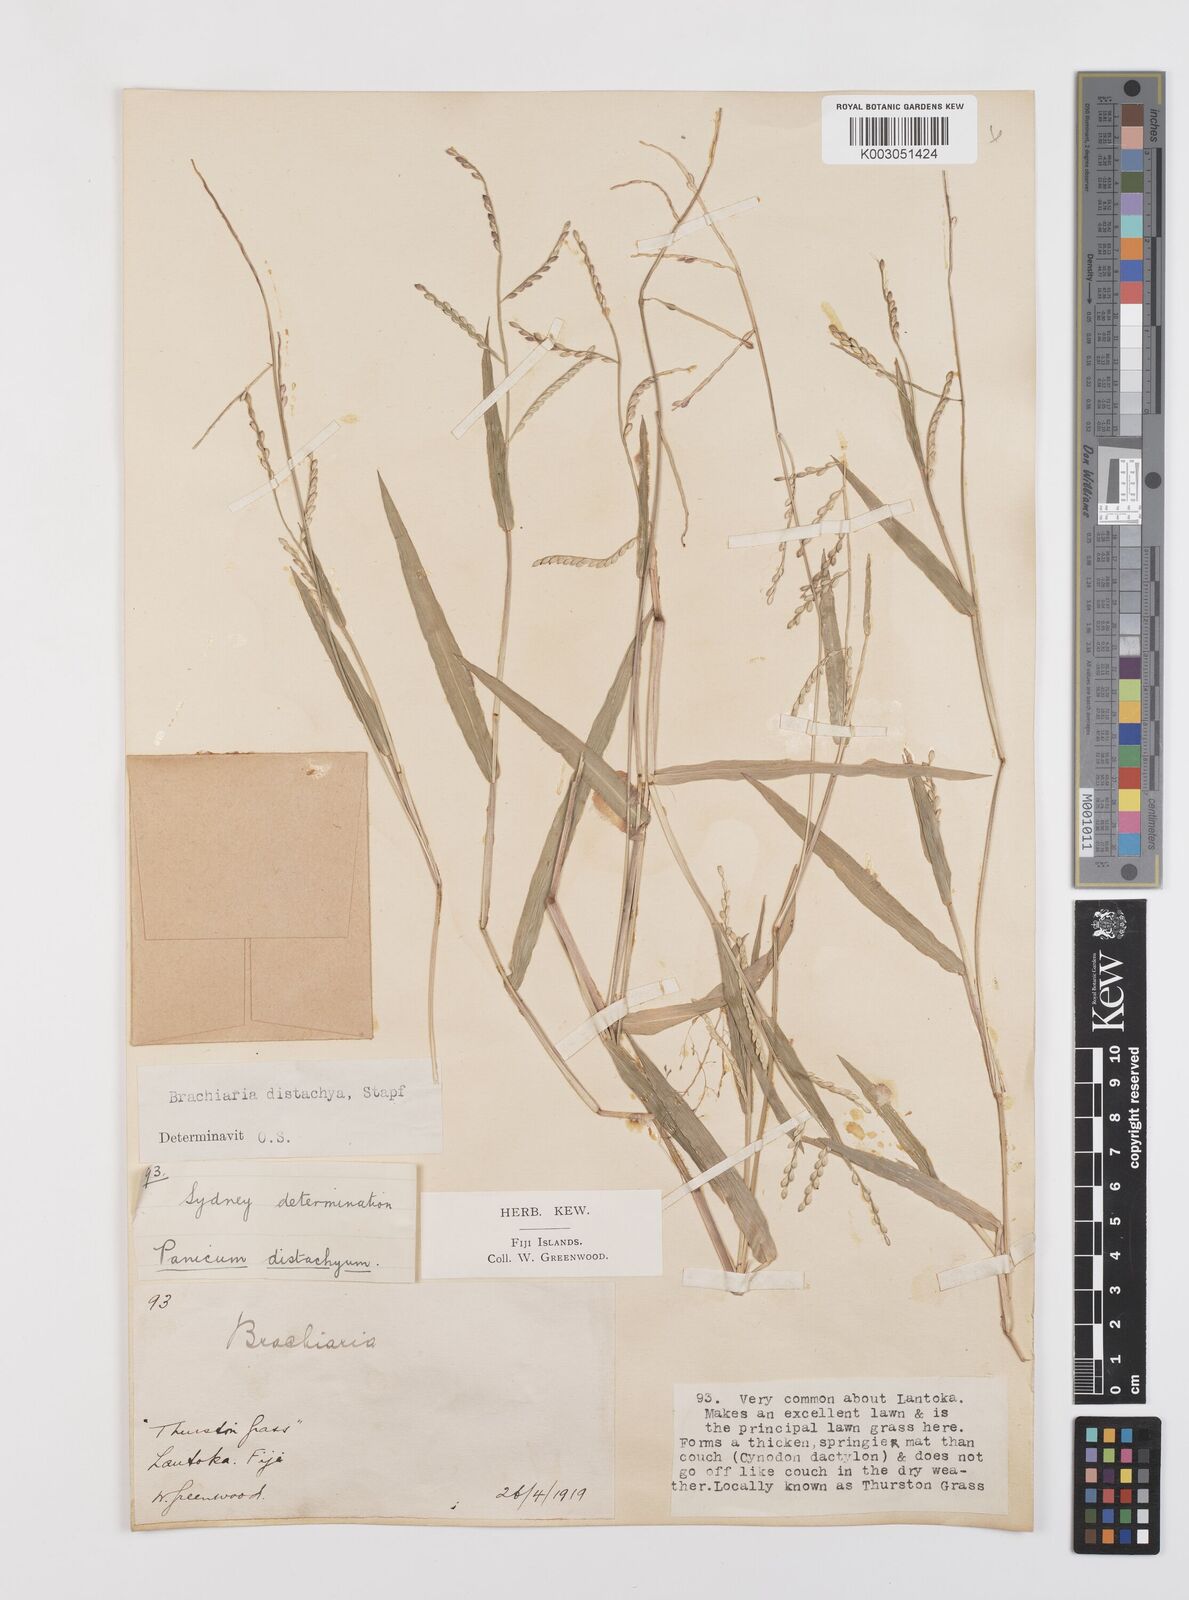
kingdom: Plantae
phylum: Tracheophyta
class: Liliopsida
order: Poales
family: Poaceae
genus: Urochloa
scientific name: Urochloa subquadripara
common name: Armgrass millet
